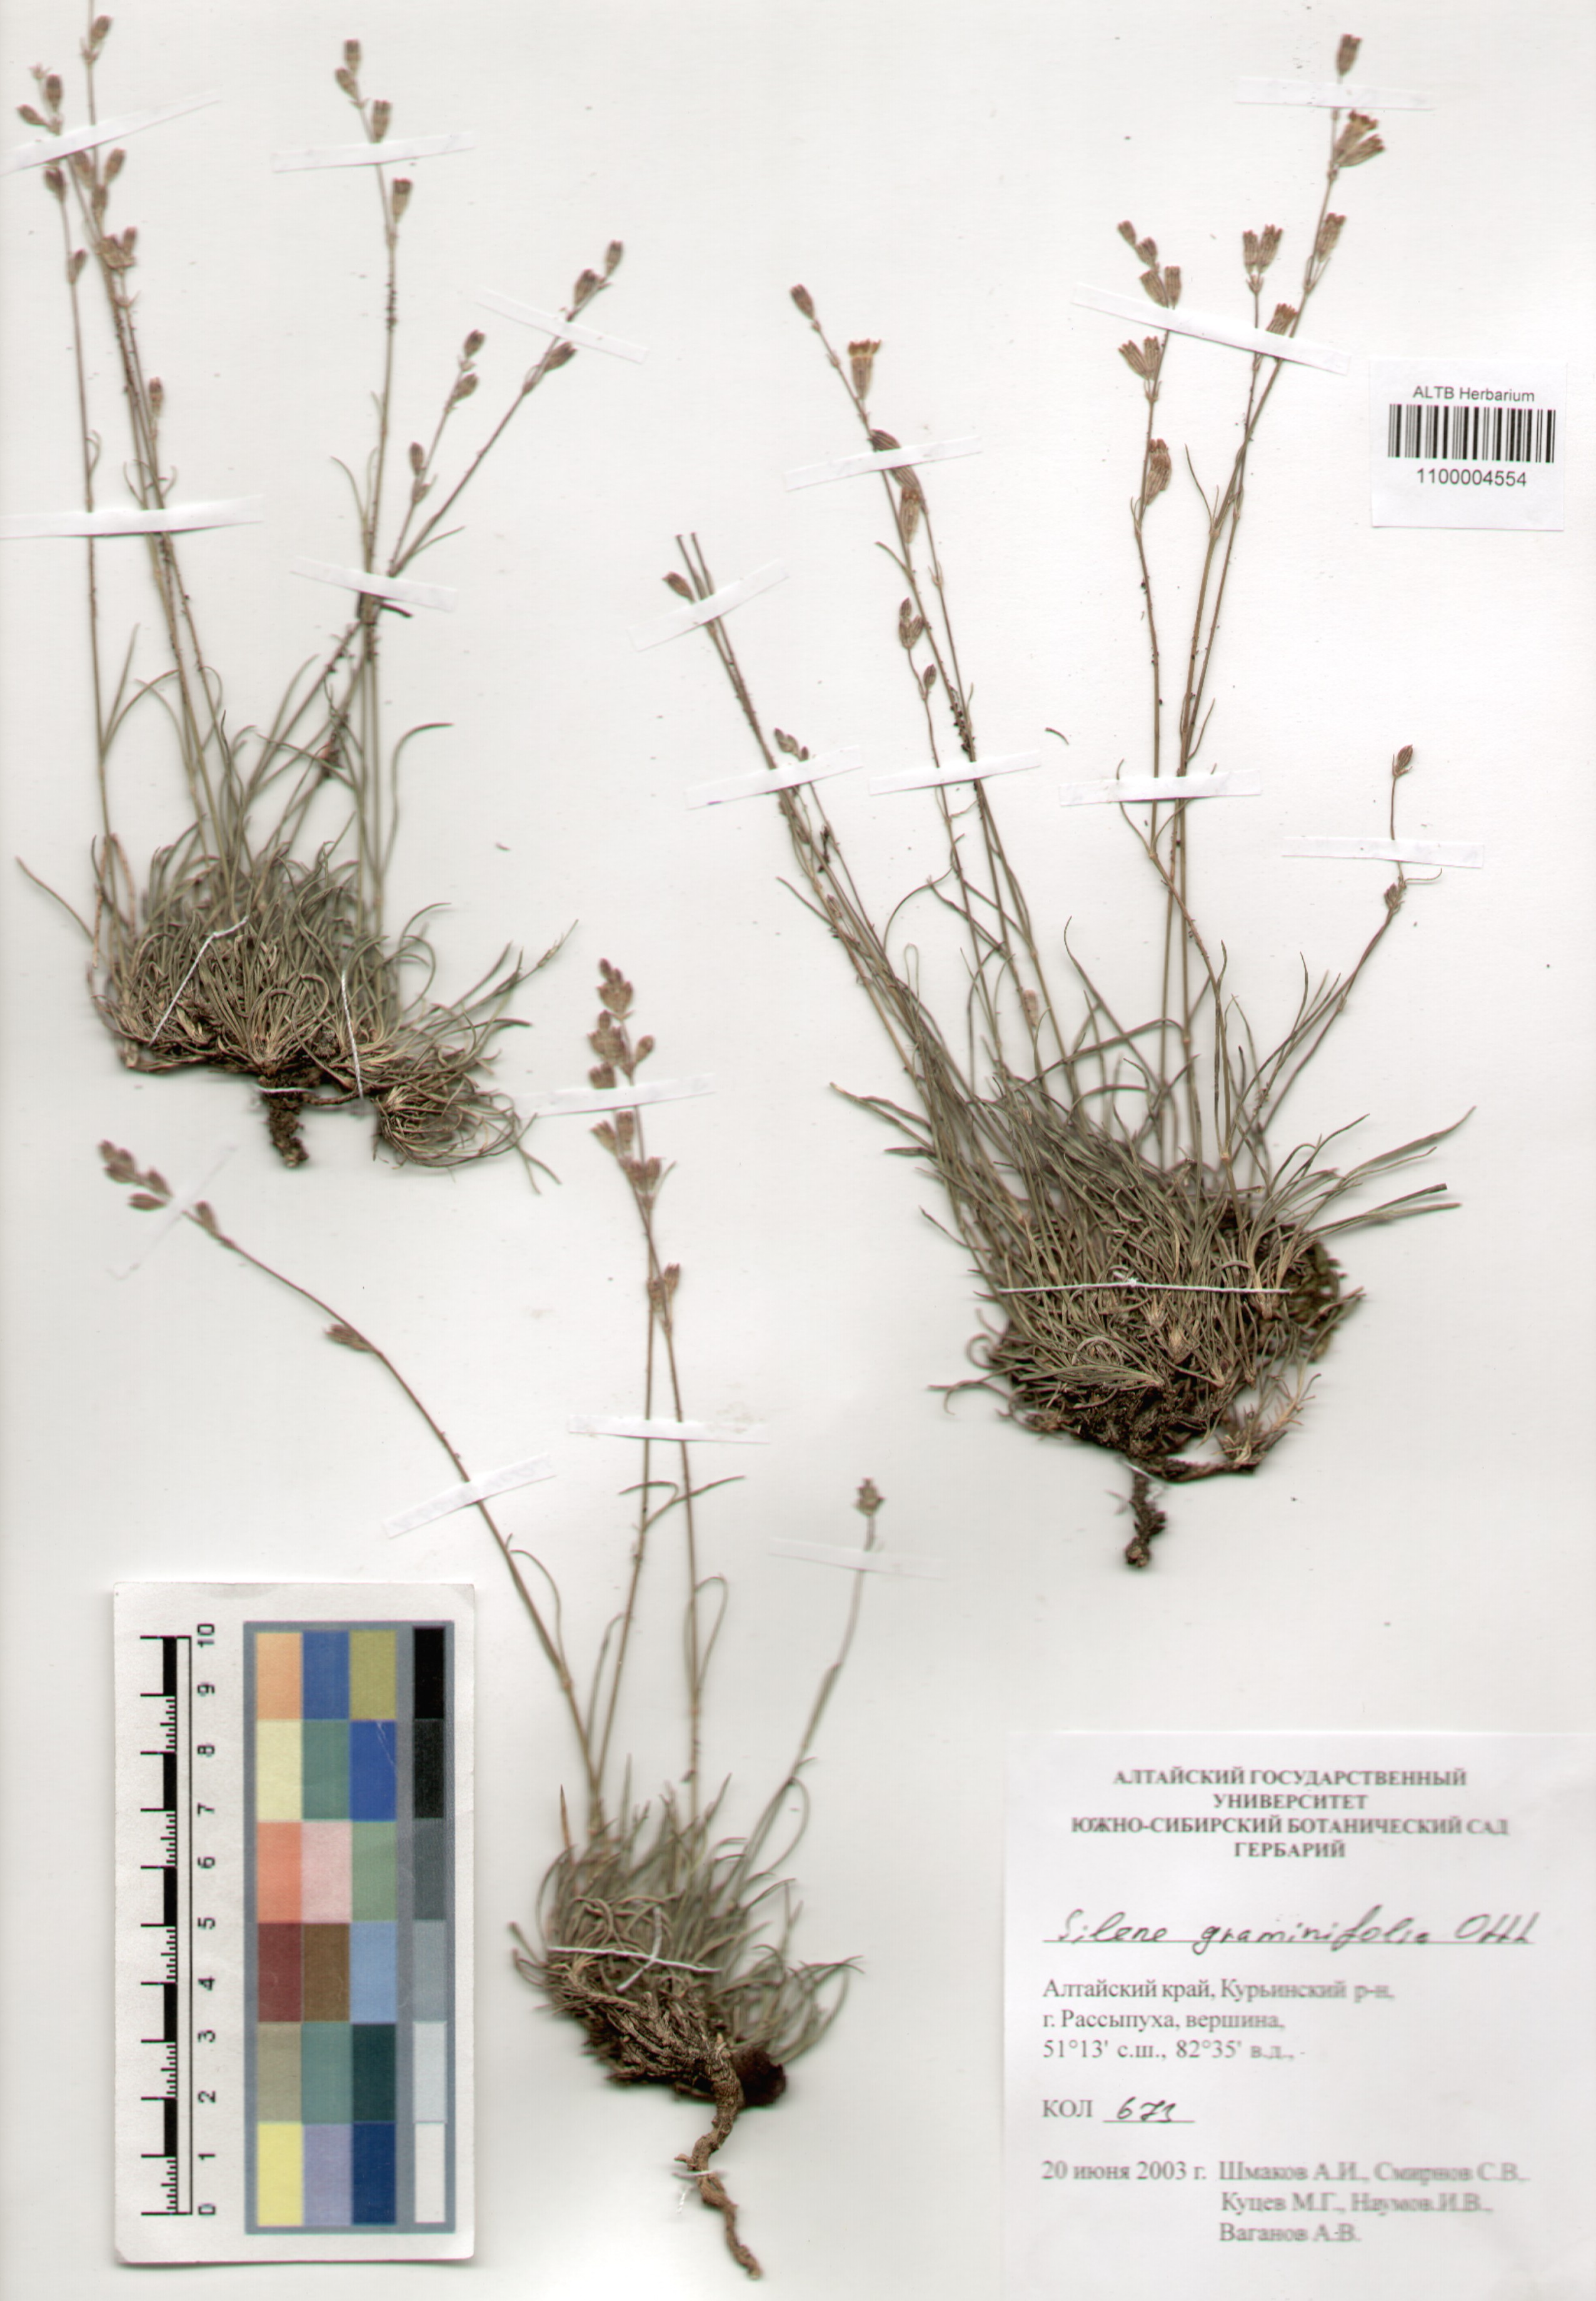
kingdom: Plantae
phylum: Tracheophyta
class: Magnoliopsida
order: Caryophyllales
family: Caryophyllaceae
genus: Silene
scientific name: Silene graminifolia
